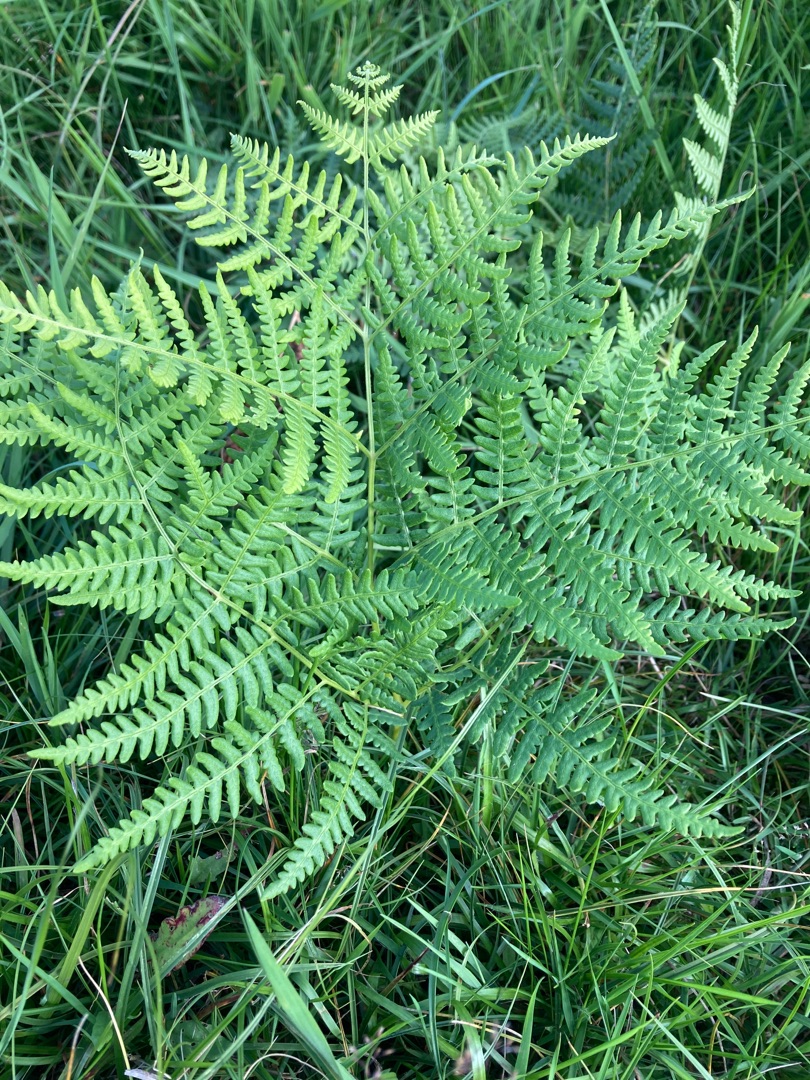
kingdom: Plantae
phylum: Tracheophyta
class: Polypodiopsida
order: Polypodiales
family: Dennstaedtiaceae
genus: Pteridium
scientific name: Pteridium aquilinum
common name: Ørnebregne
